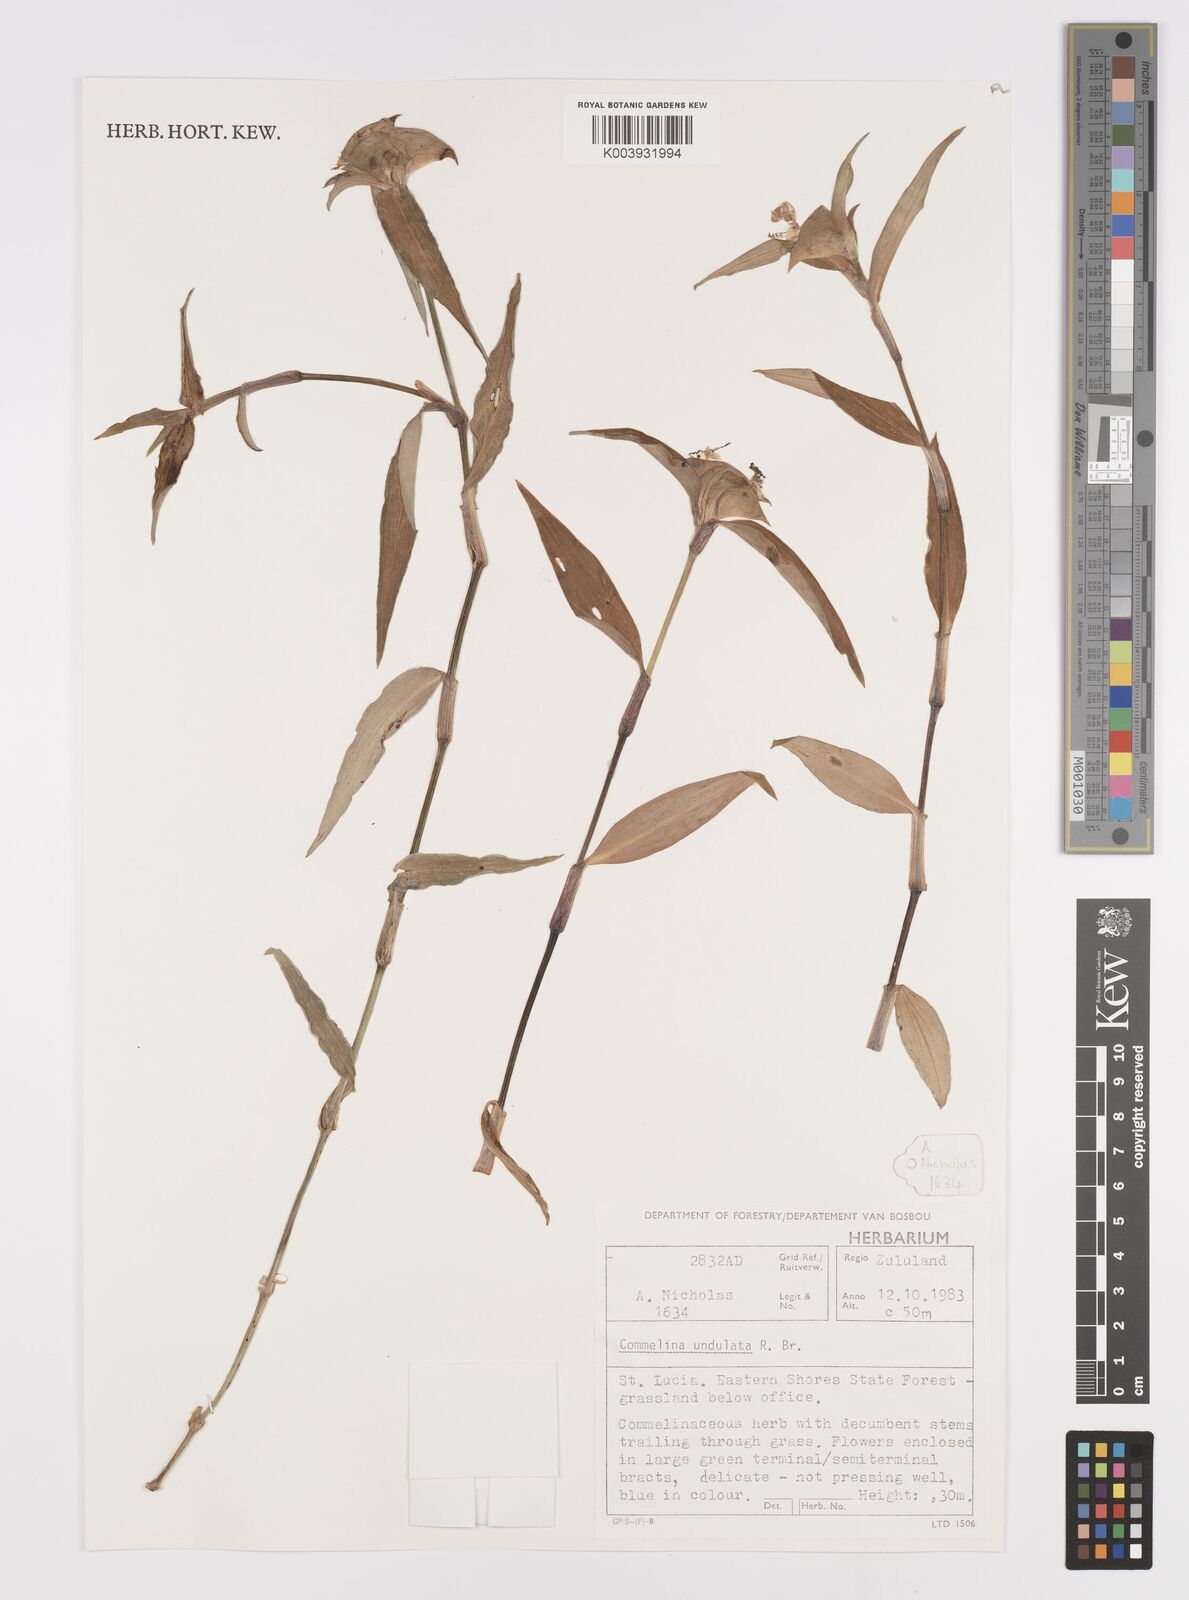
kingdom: Plantae
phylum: Tracheophyta
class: Liliopsida
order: Commelinales
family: Commelinaceae
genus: Commelina
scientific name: Commelina erecta
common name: Blousel blommetjie
